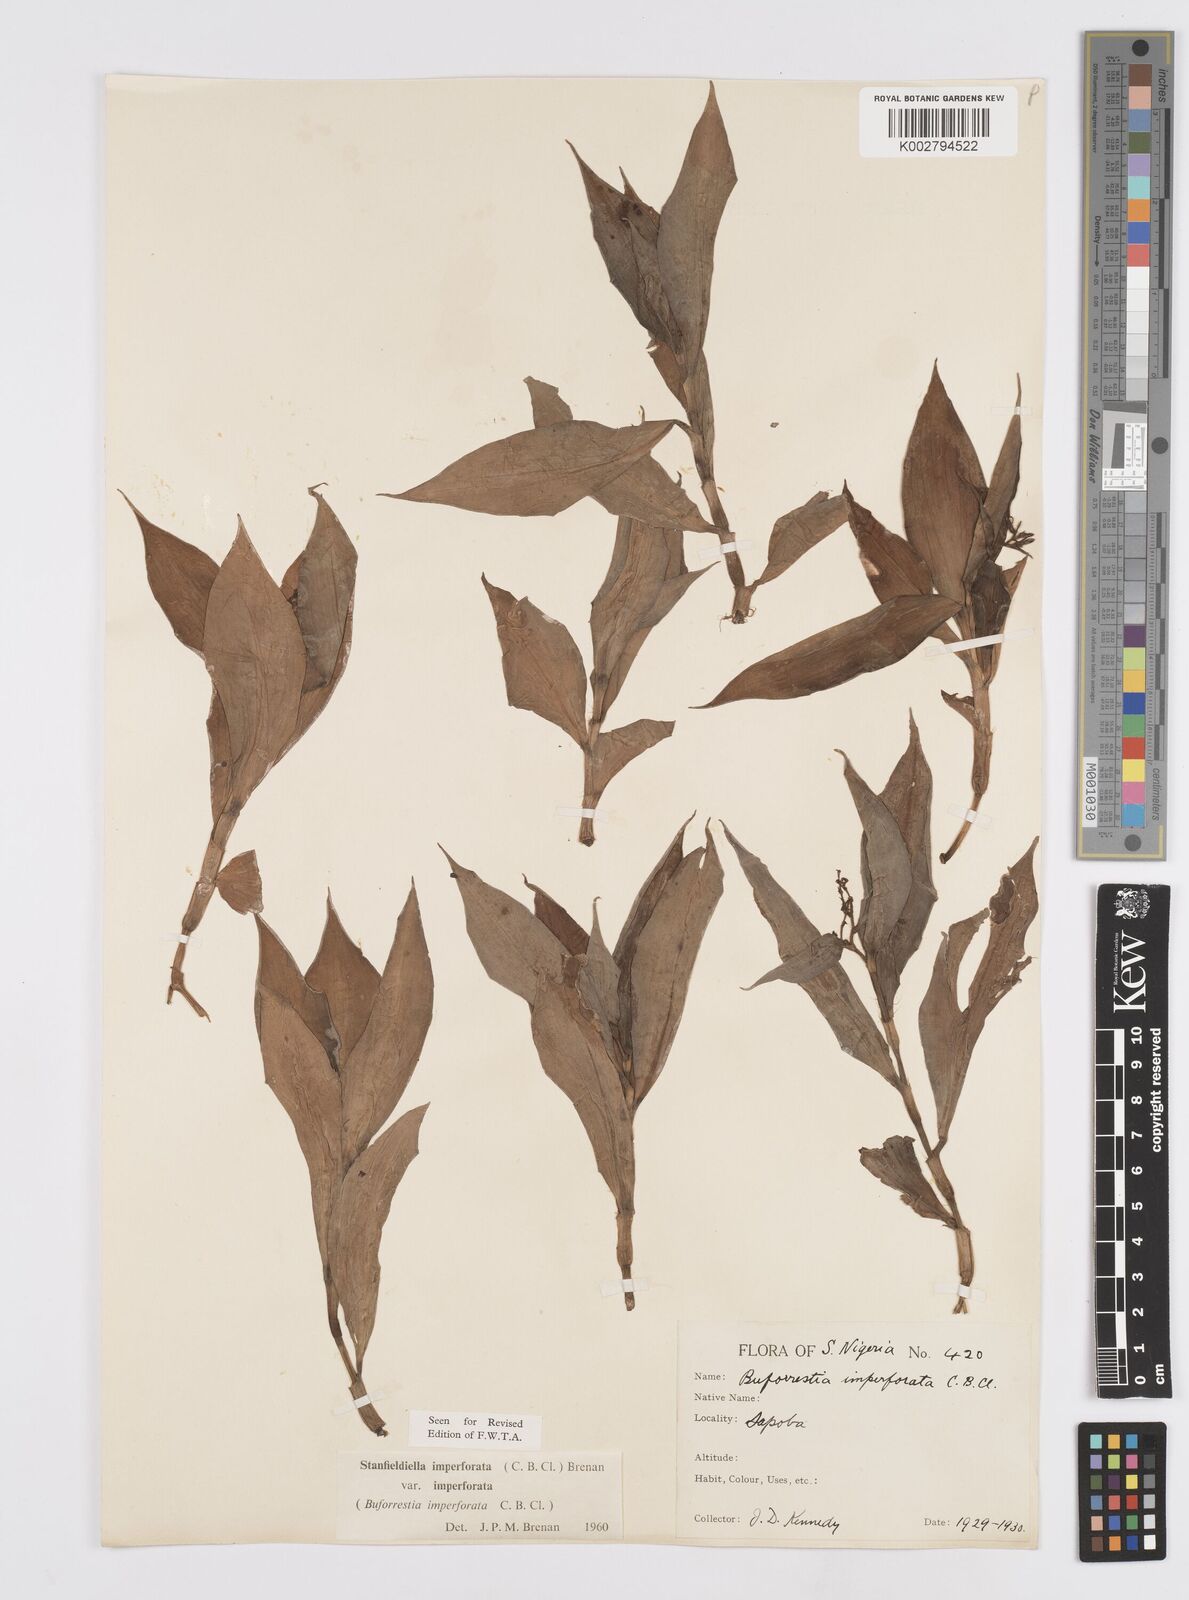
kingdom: Plantae
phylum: Tracheophyta
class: Liliopsida
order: Commelinales
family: Commelinaceae
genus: Stanfieldiella
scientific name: Stanfieldiella imperforata
